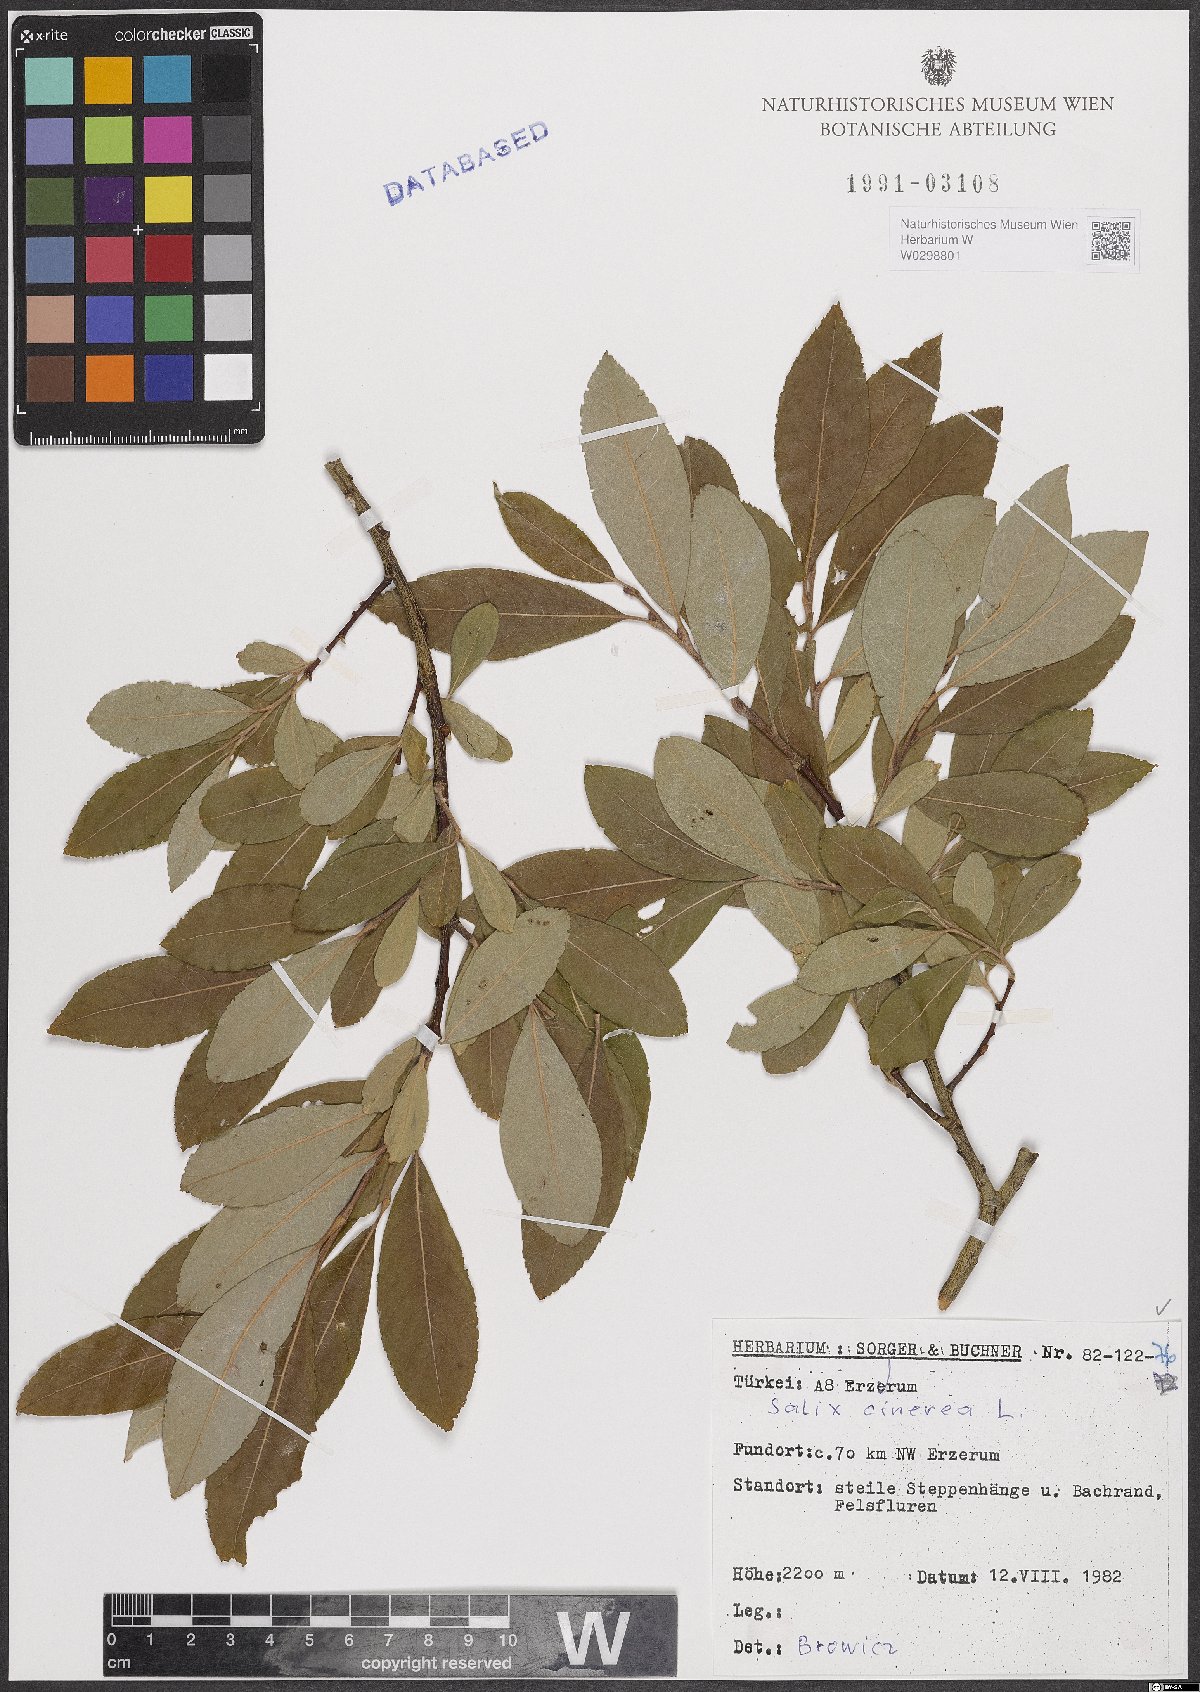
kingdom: Plantae
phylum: Tracheophyta
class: Magnoliopsida
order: Malpighiales
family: Salicaceae
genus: Salix
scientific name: Salix cinerea
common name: Common sallow
